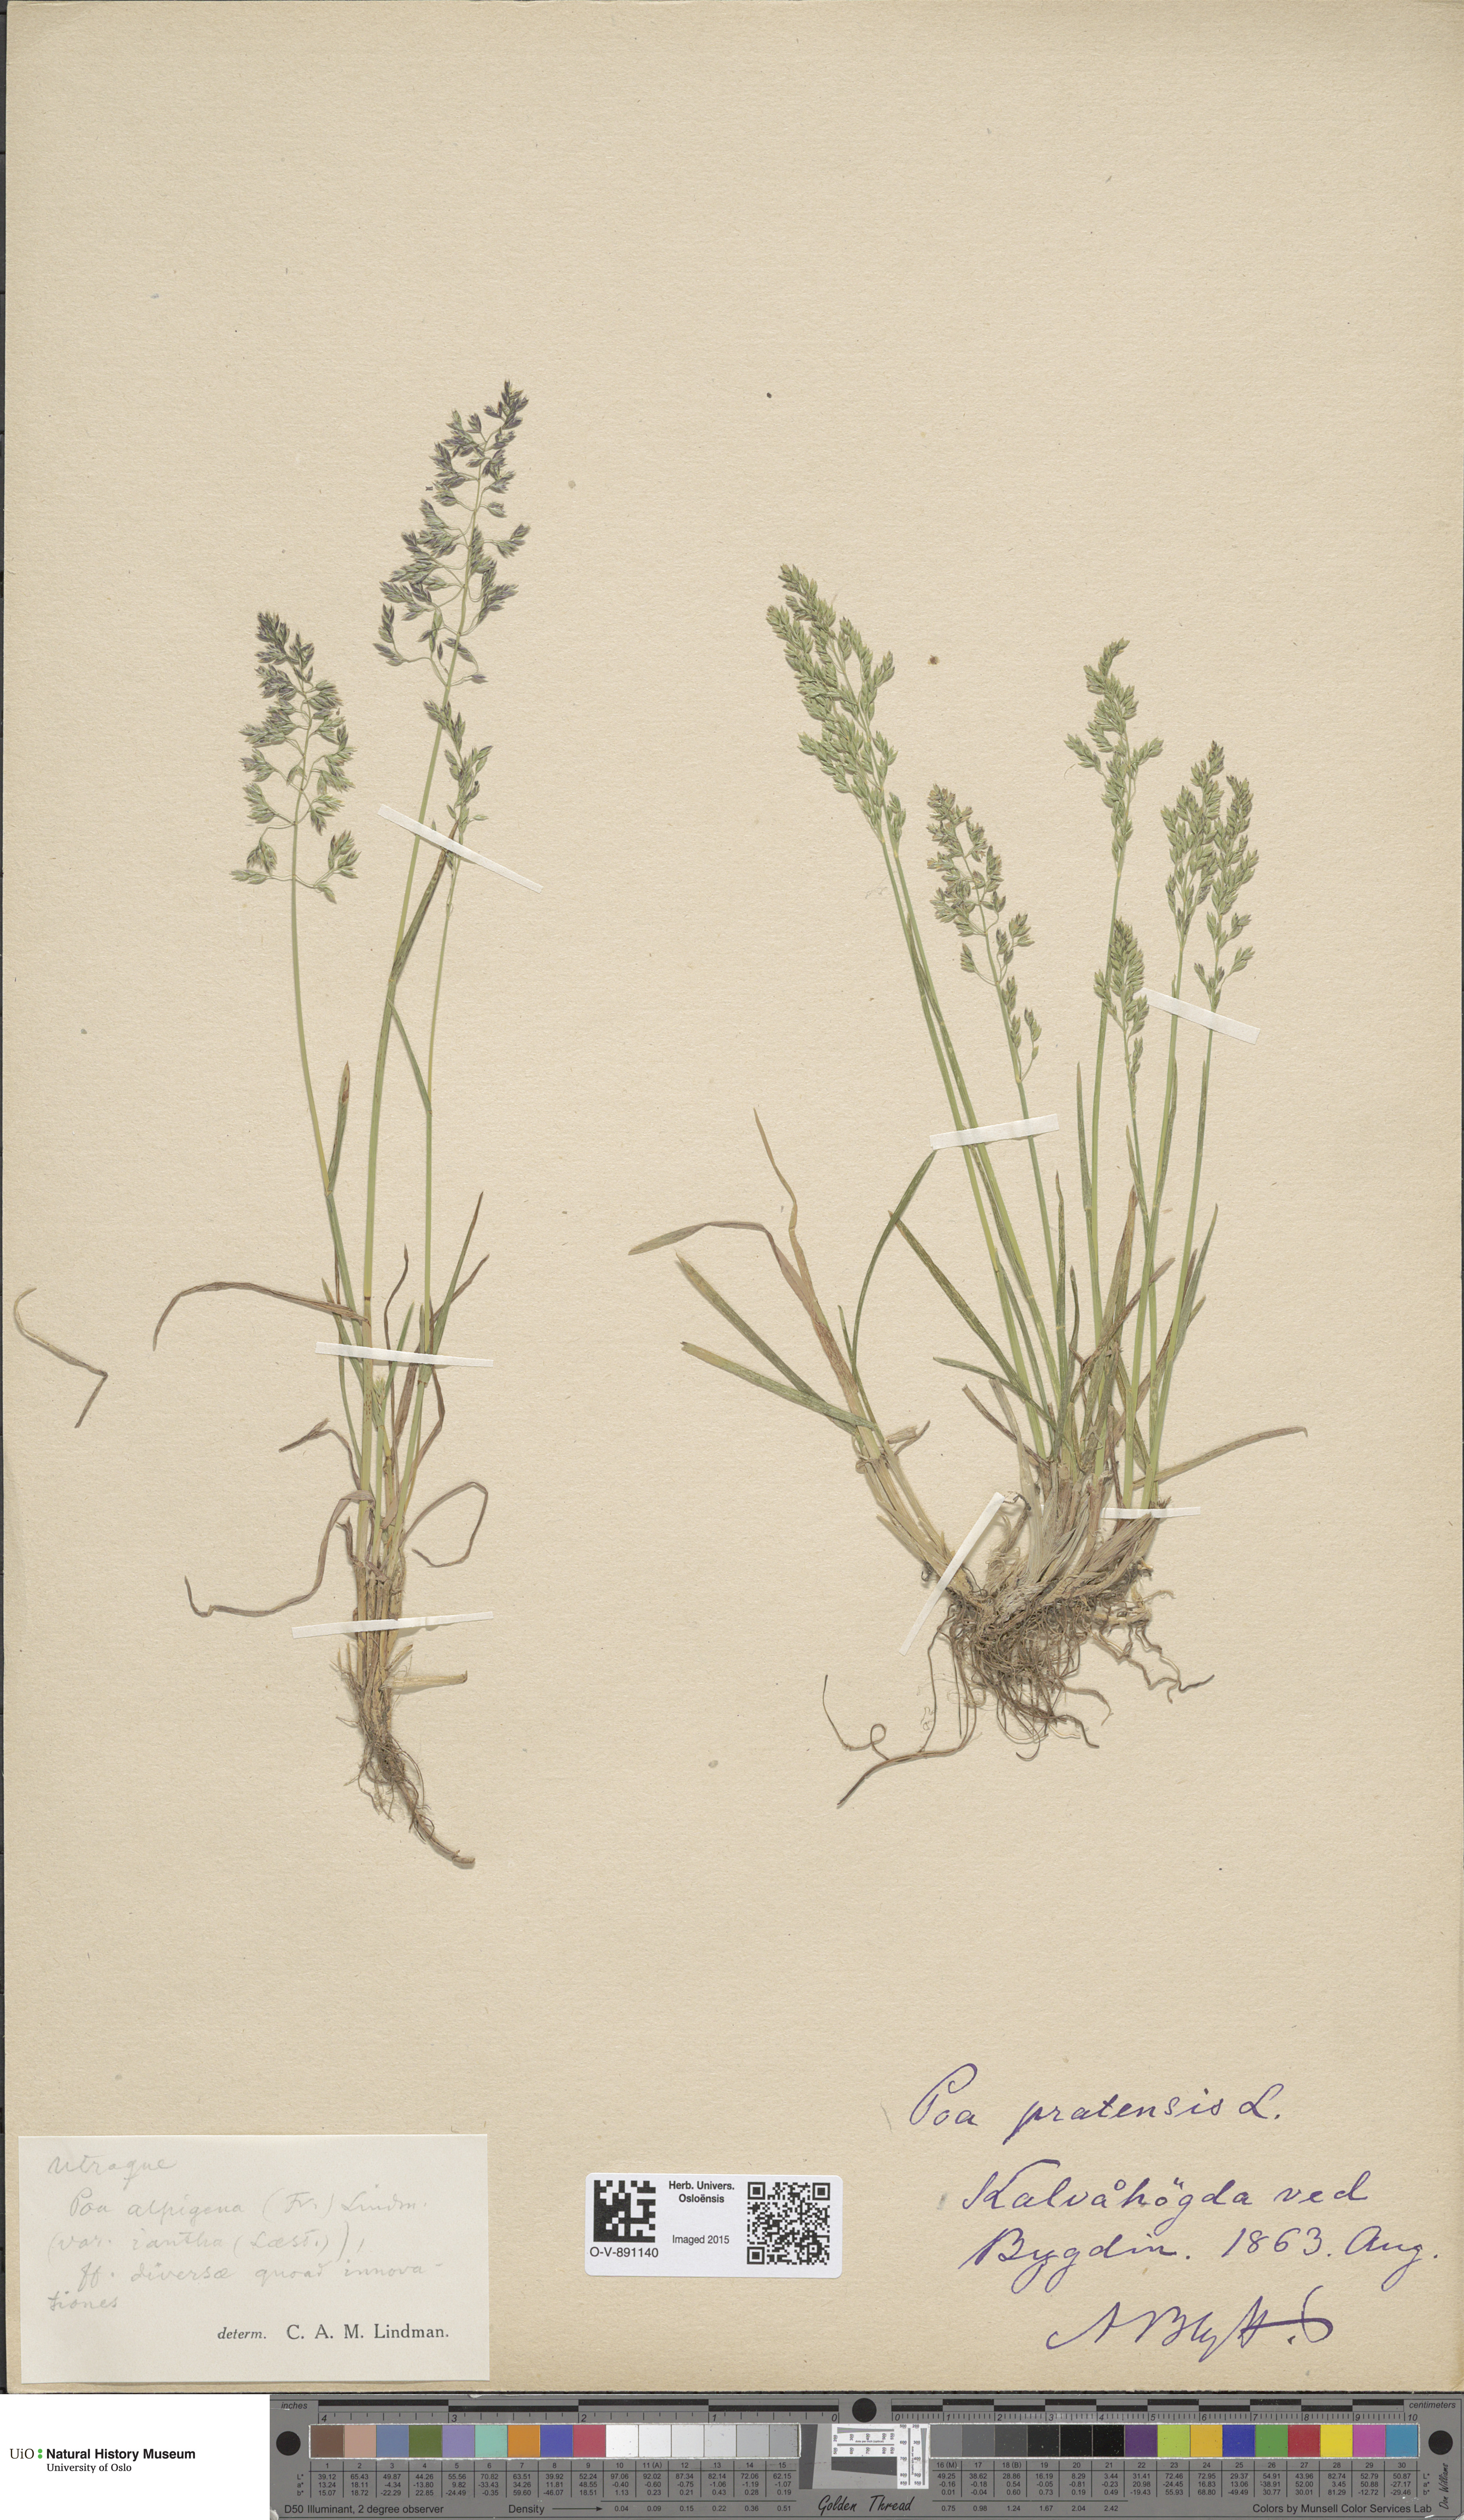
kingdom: Plantae
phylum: Tracheophyta
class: Liliopsida
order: Poales
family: Poaceae
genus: Poa
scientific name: Poa alpigena
